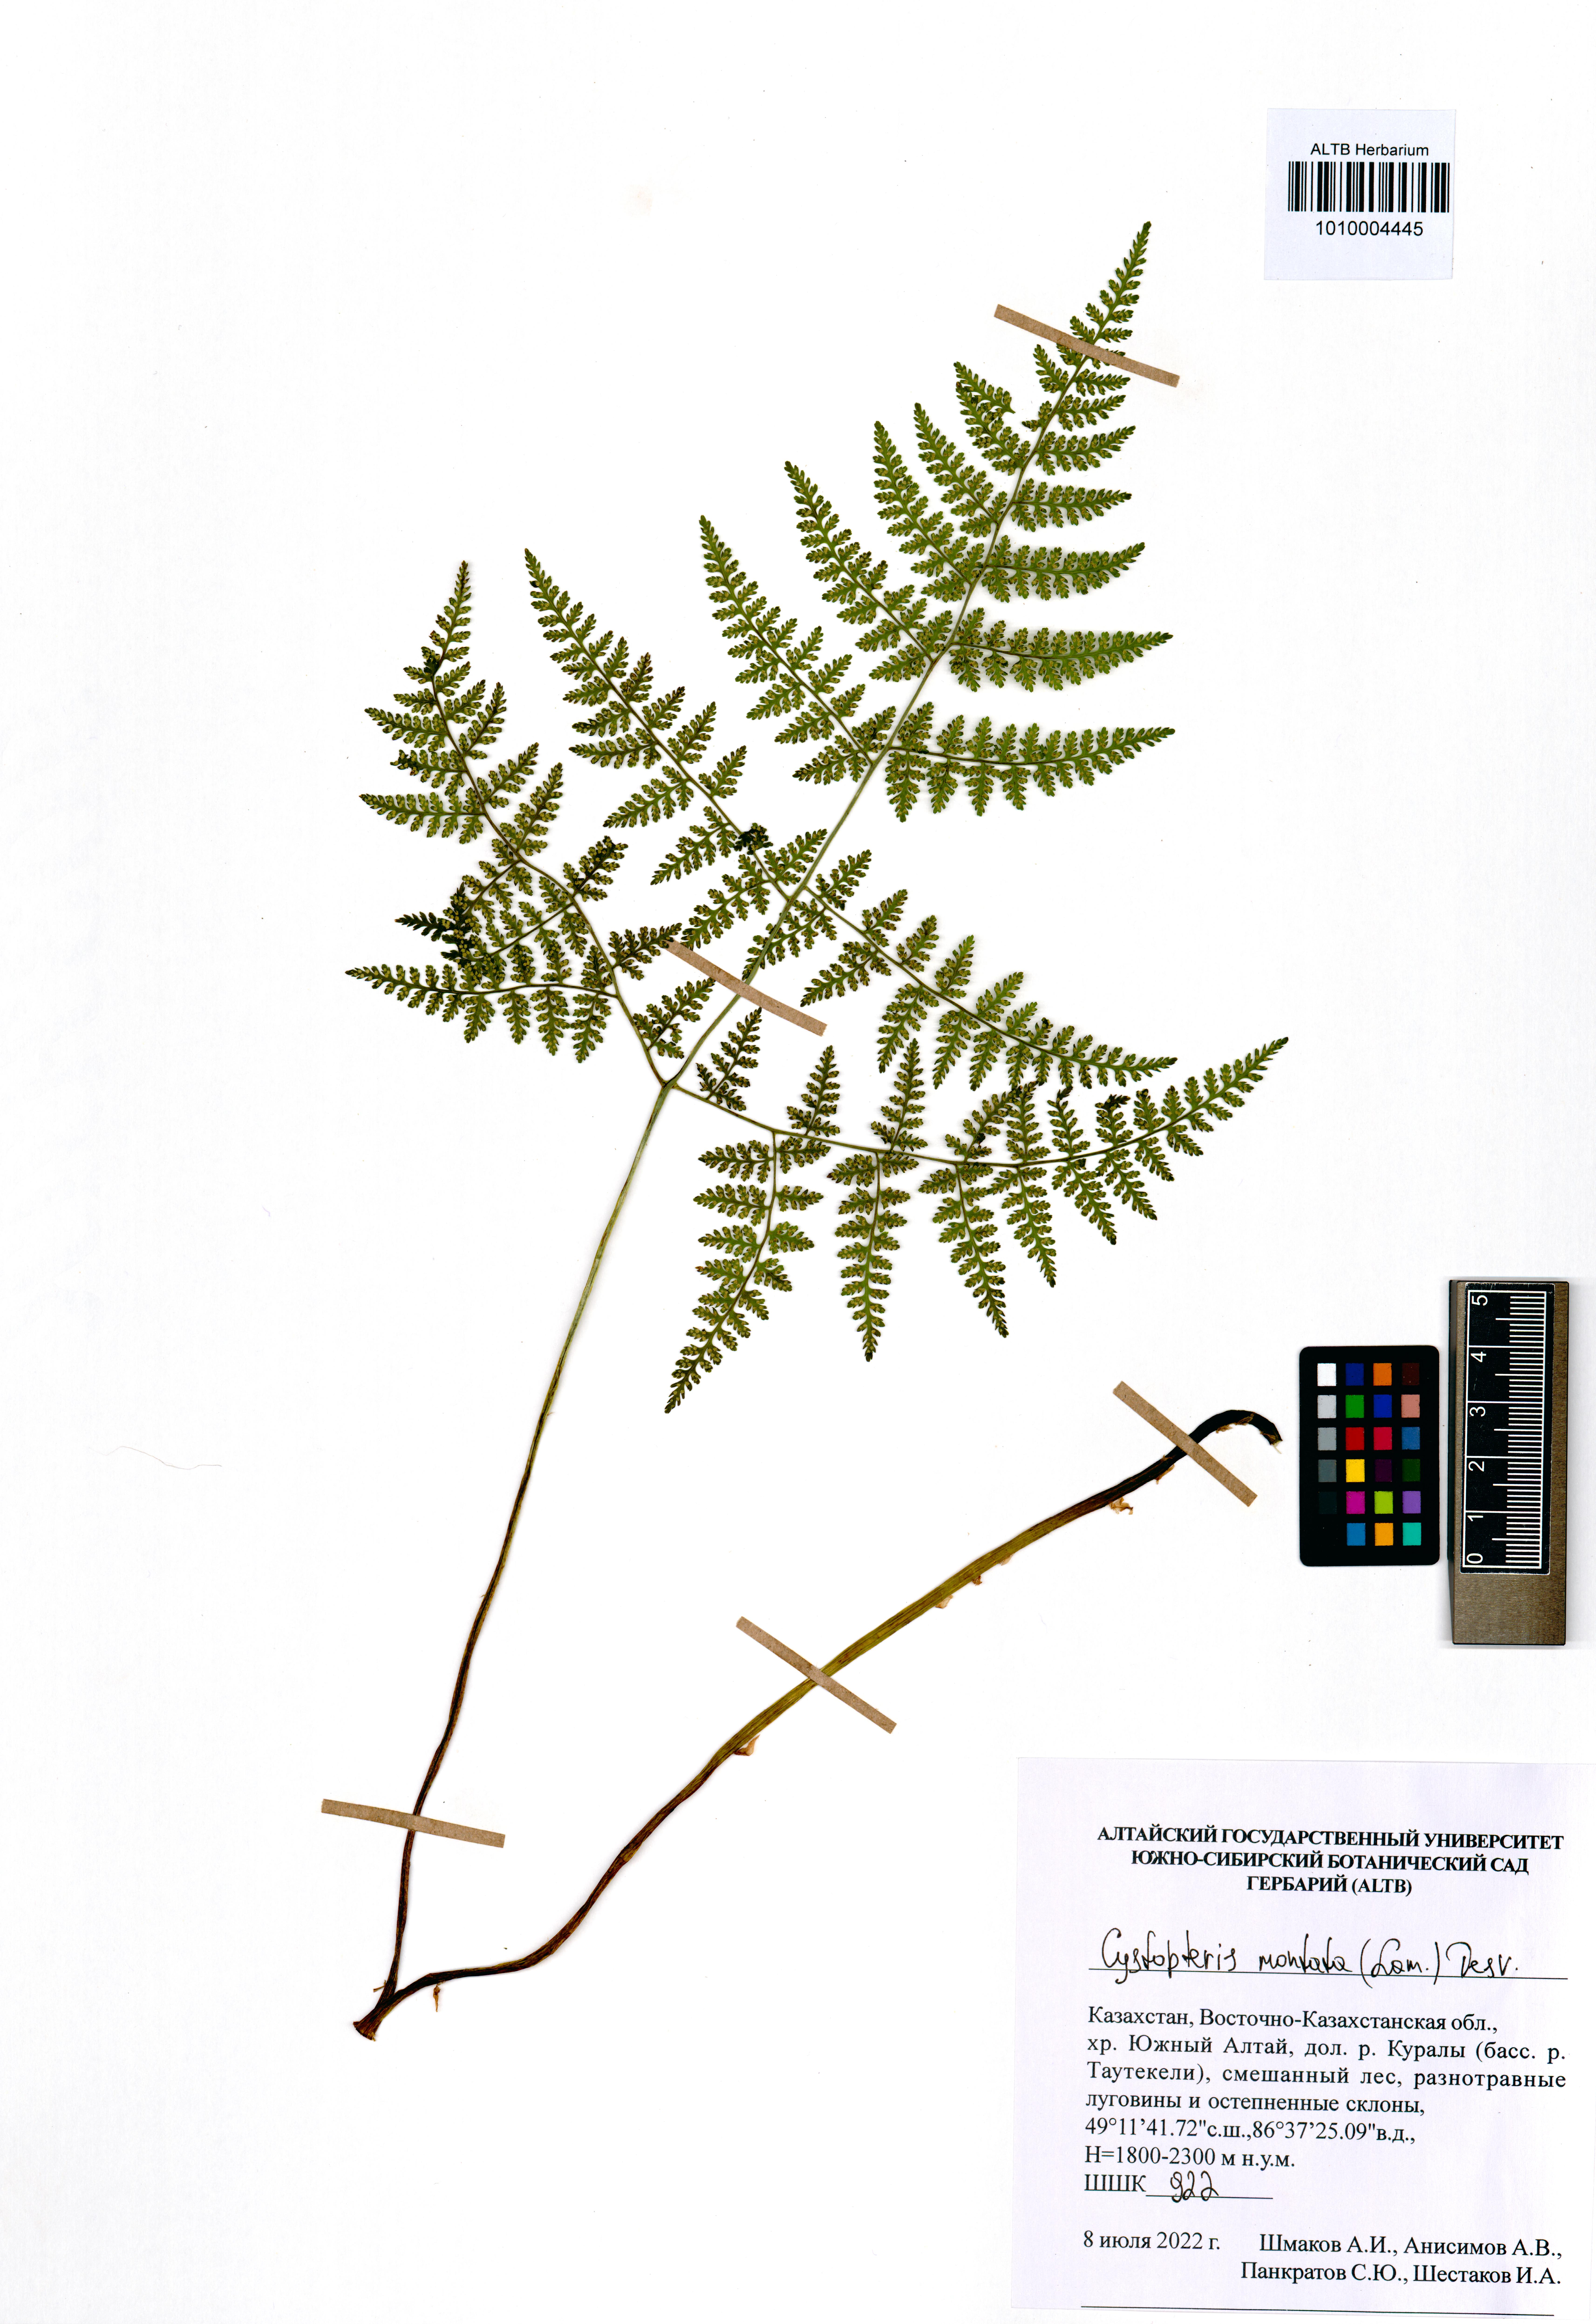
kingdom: Plantae
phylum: Tracheophyta
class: Polypodiopsida
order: Polypodiales
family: Cystopteridaceae
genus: Cystopteris
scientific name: Cystopteris montana
